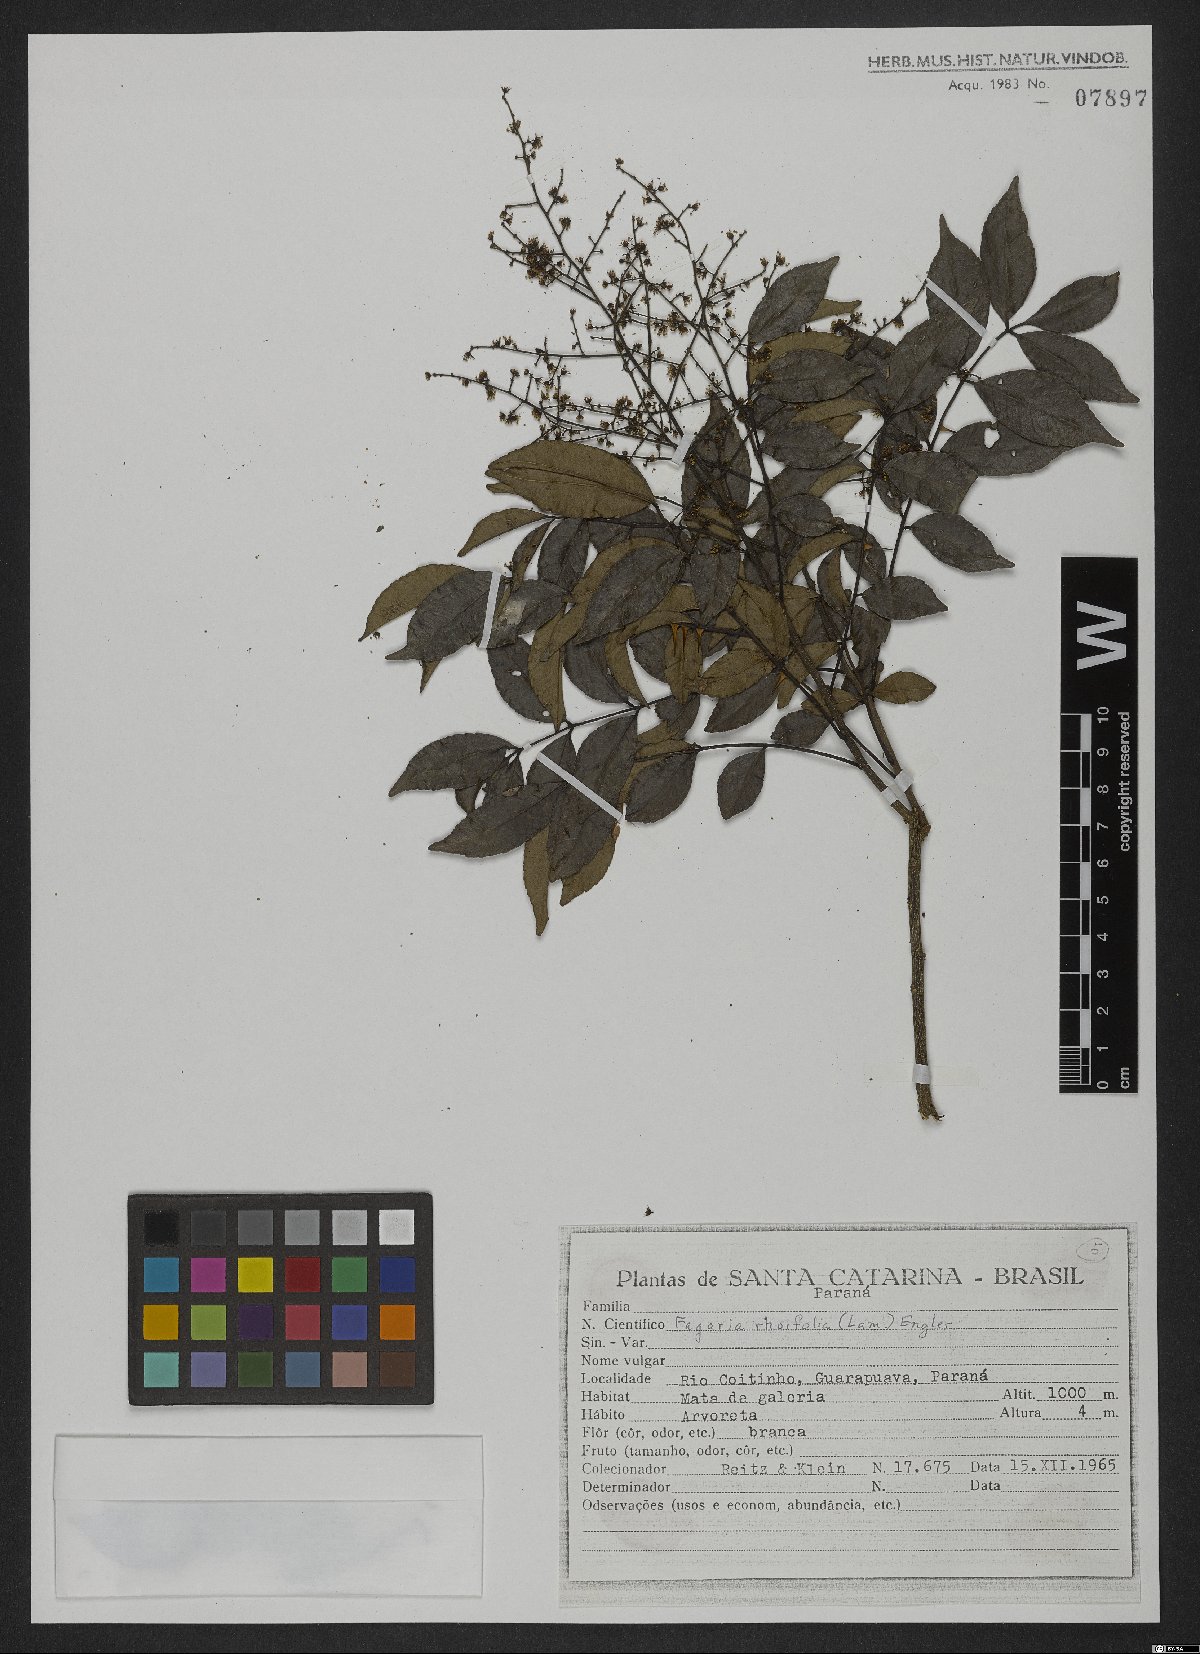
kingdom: Plantae
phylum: Tracheophyta
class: Magnoliopsida
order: Sapindales
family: Rutaceae
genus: Zanthoxylum
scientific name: Zanthoxylum rhoifolium
